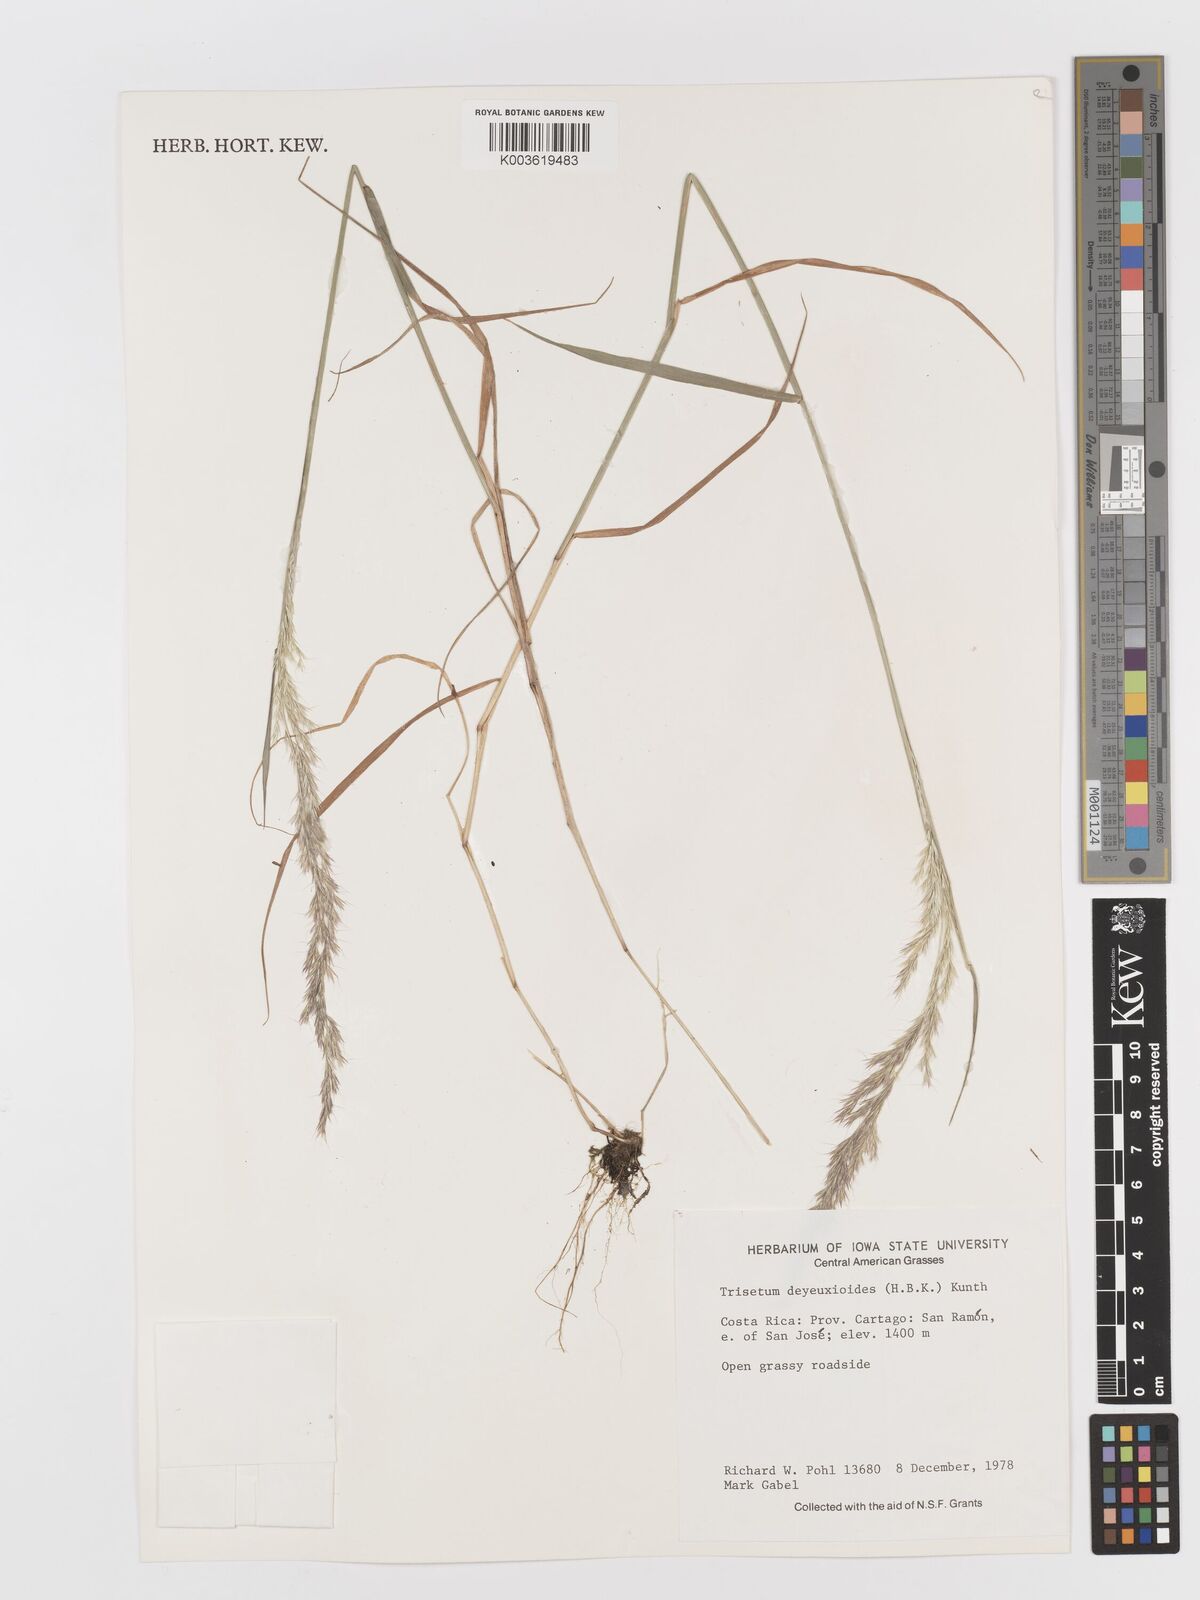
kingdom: Plantae
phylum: Tracheophyta
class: Liliopsida
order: Poales
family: Poaceae
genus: Peyritschia
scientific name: Peyritschia deyeuxioides
